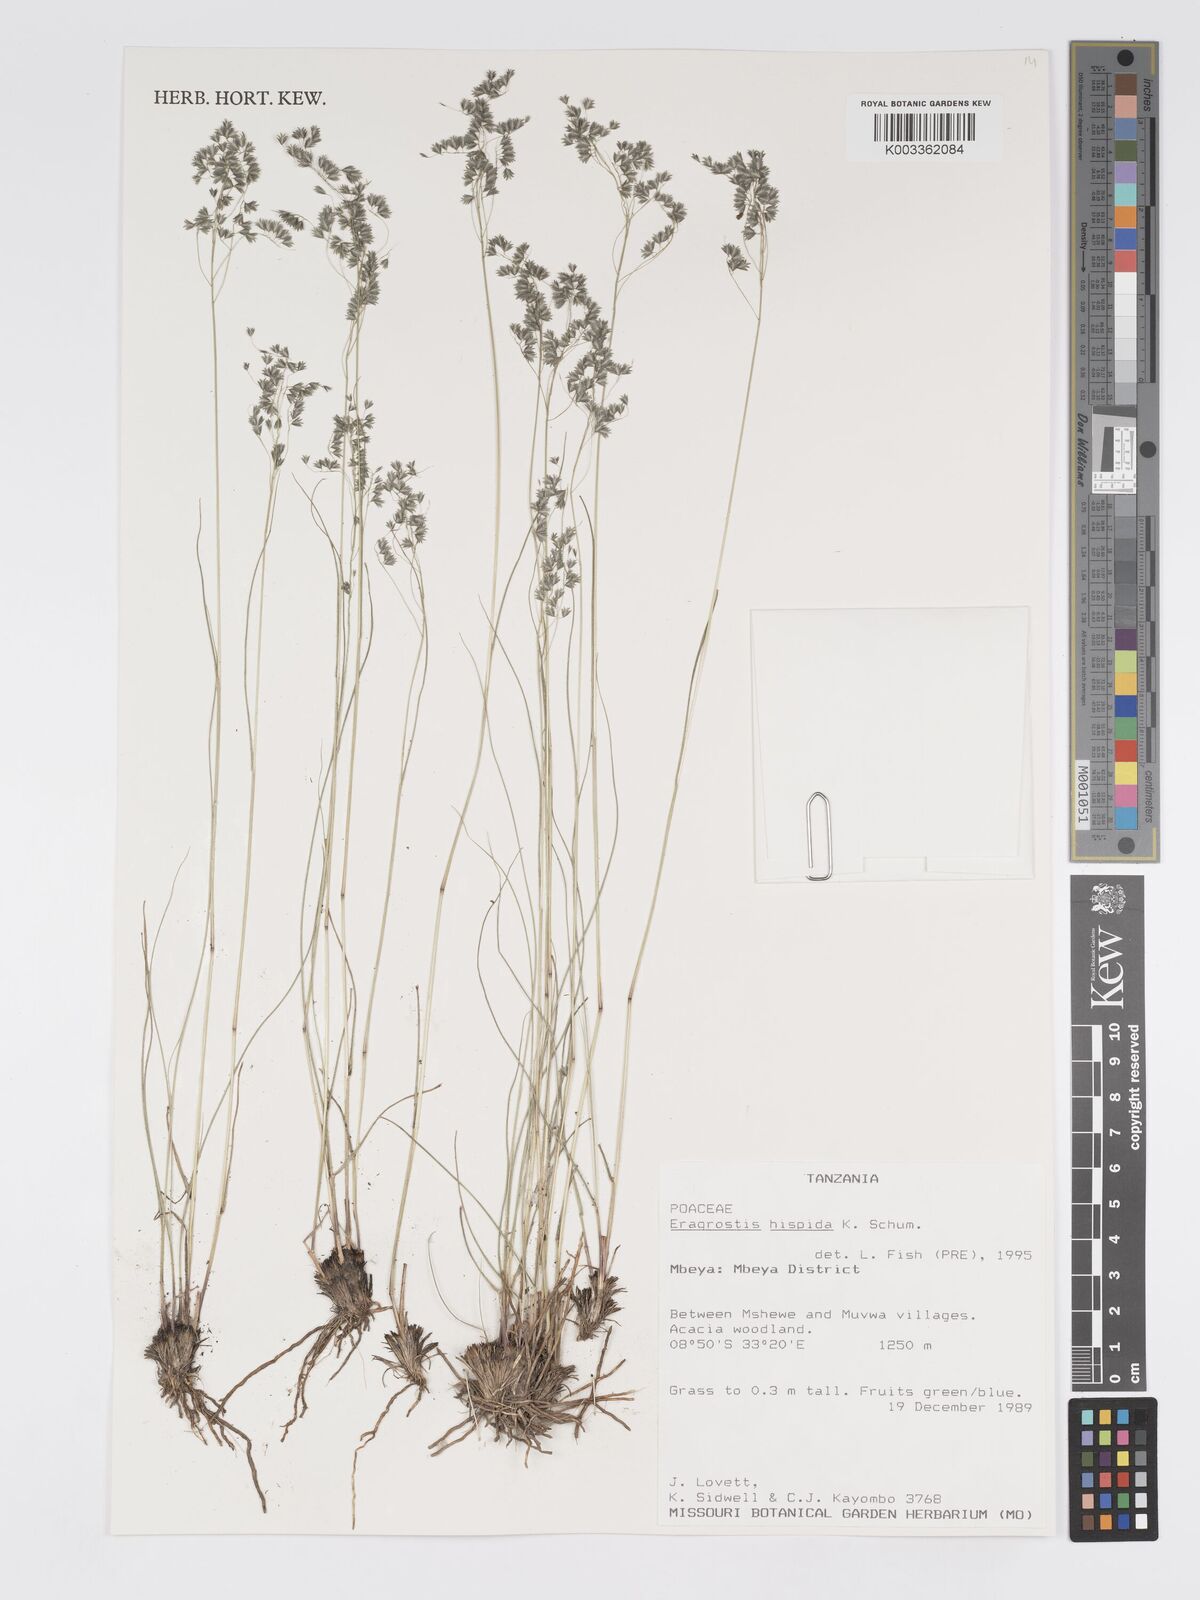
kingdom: Plantae
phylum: Tracheophyta
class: Liliopsida
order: Poales
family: Poaceae
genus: Eragrostis
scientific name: Eragrostis hispida
